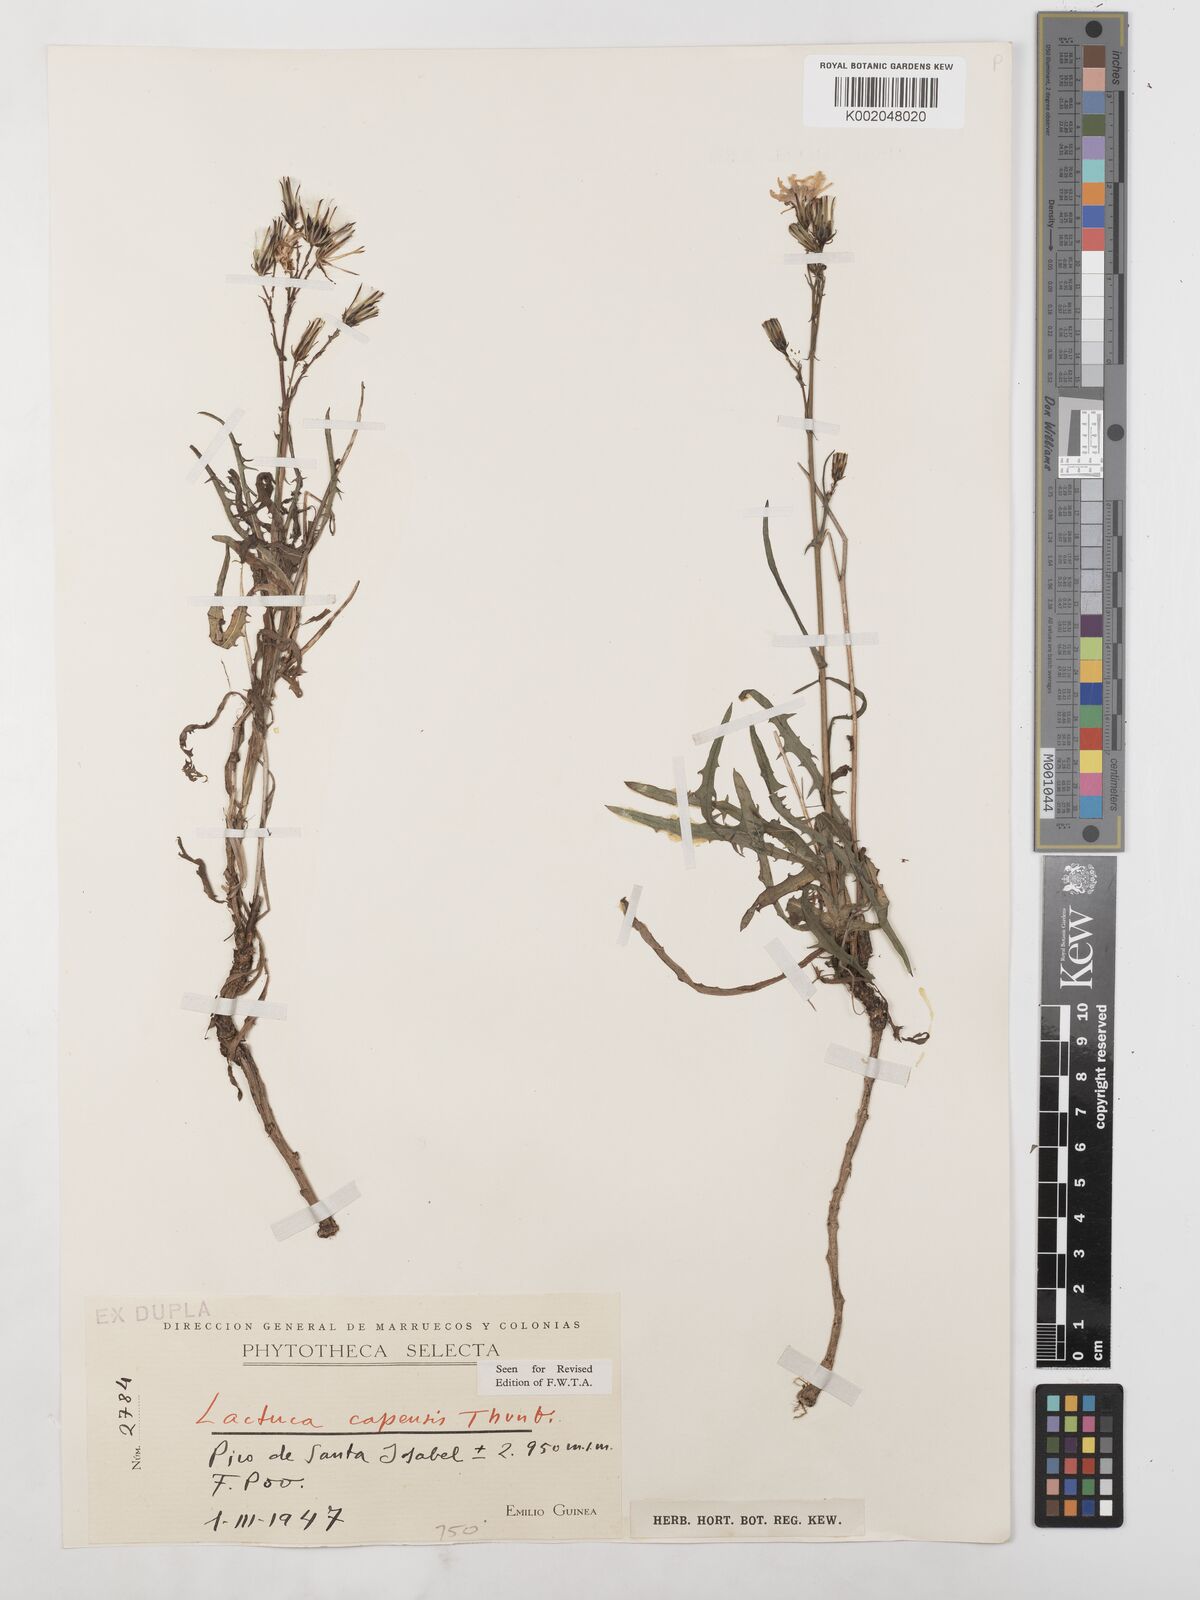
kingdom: Plantae
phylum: Tracheophyta
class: Magnoliopsida
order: Asterales
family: Asteraceae
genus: Lactuca
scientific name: Lactuca inermis
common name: Wild lettuce
